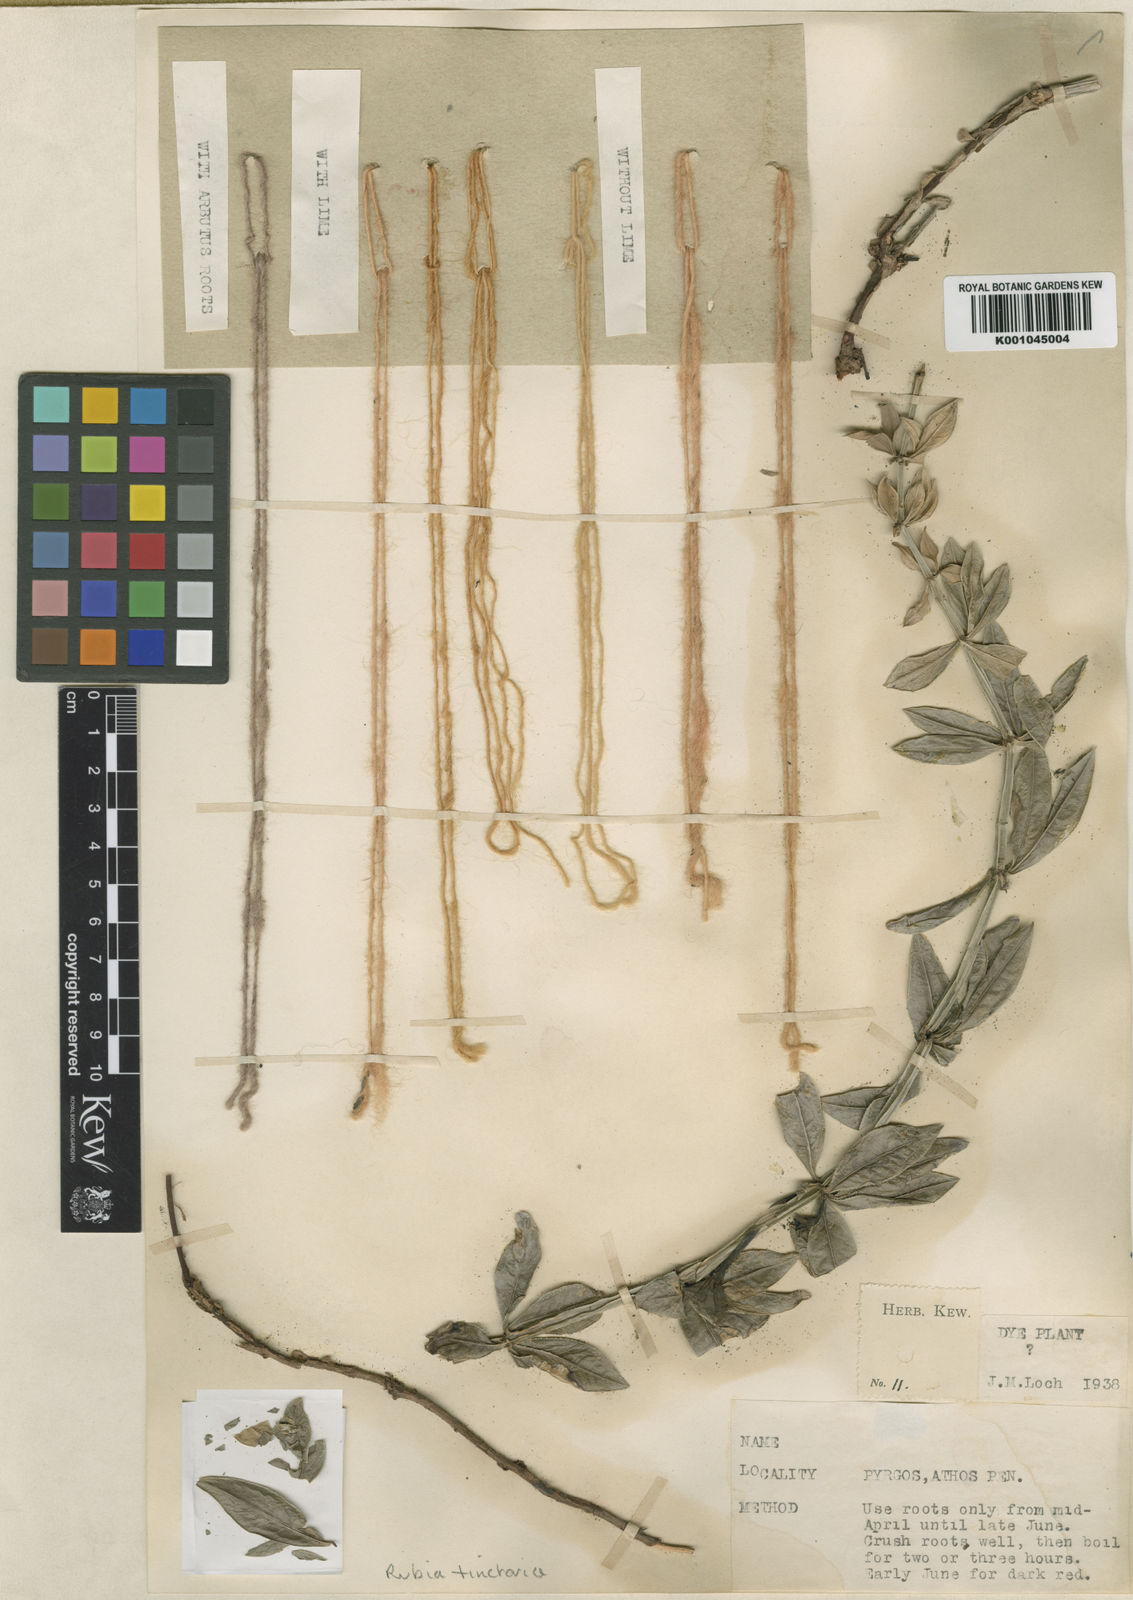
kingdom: Plantae
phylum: Tracheophyta
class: Magnoliopsida
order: Gentianales
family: Rubiaceae
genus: Rubia
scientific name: Rubia tinctorum
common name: Dyer's madder
